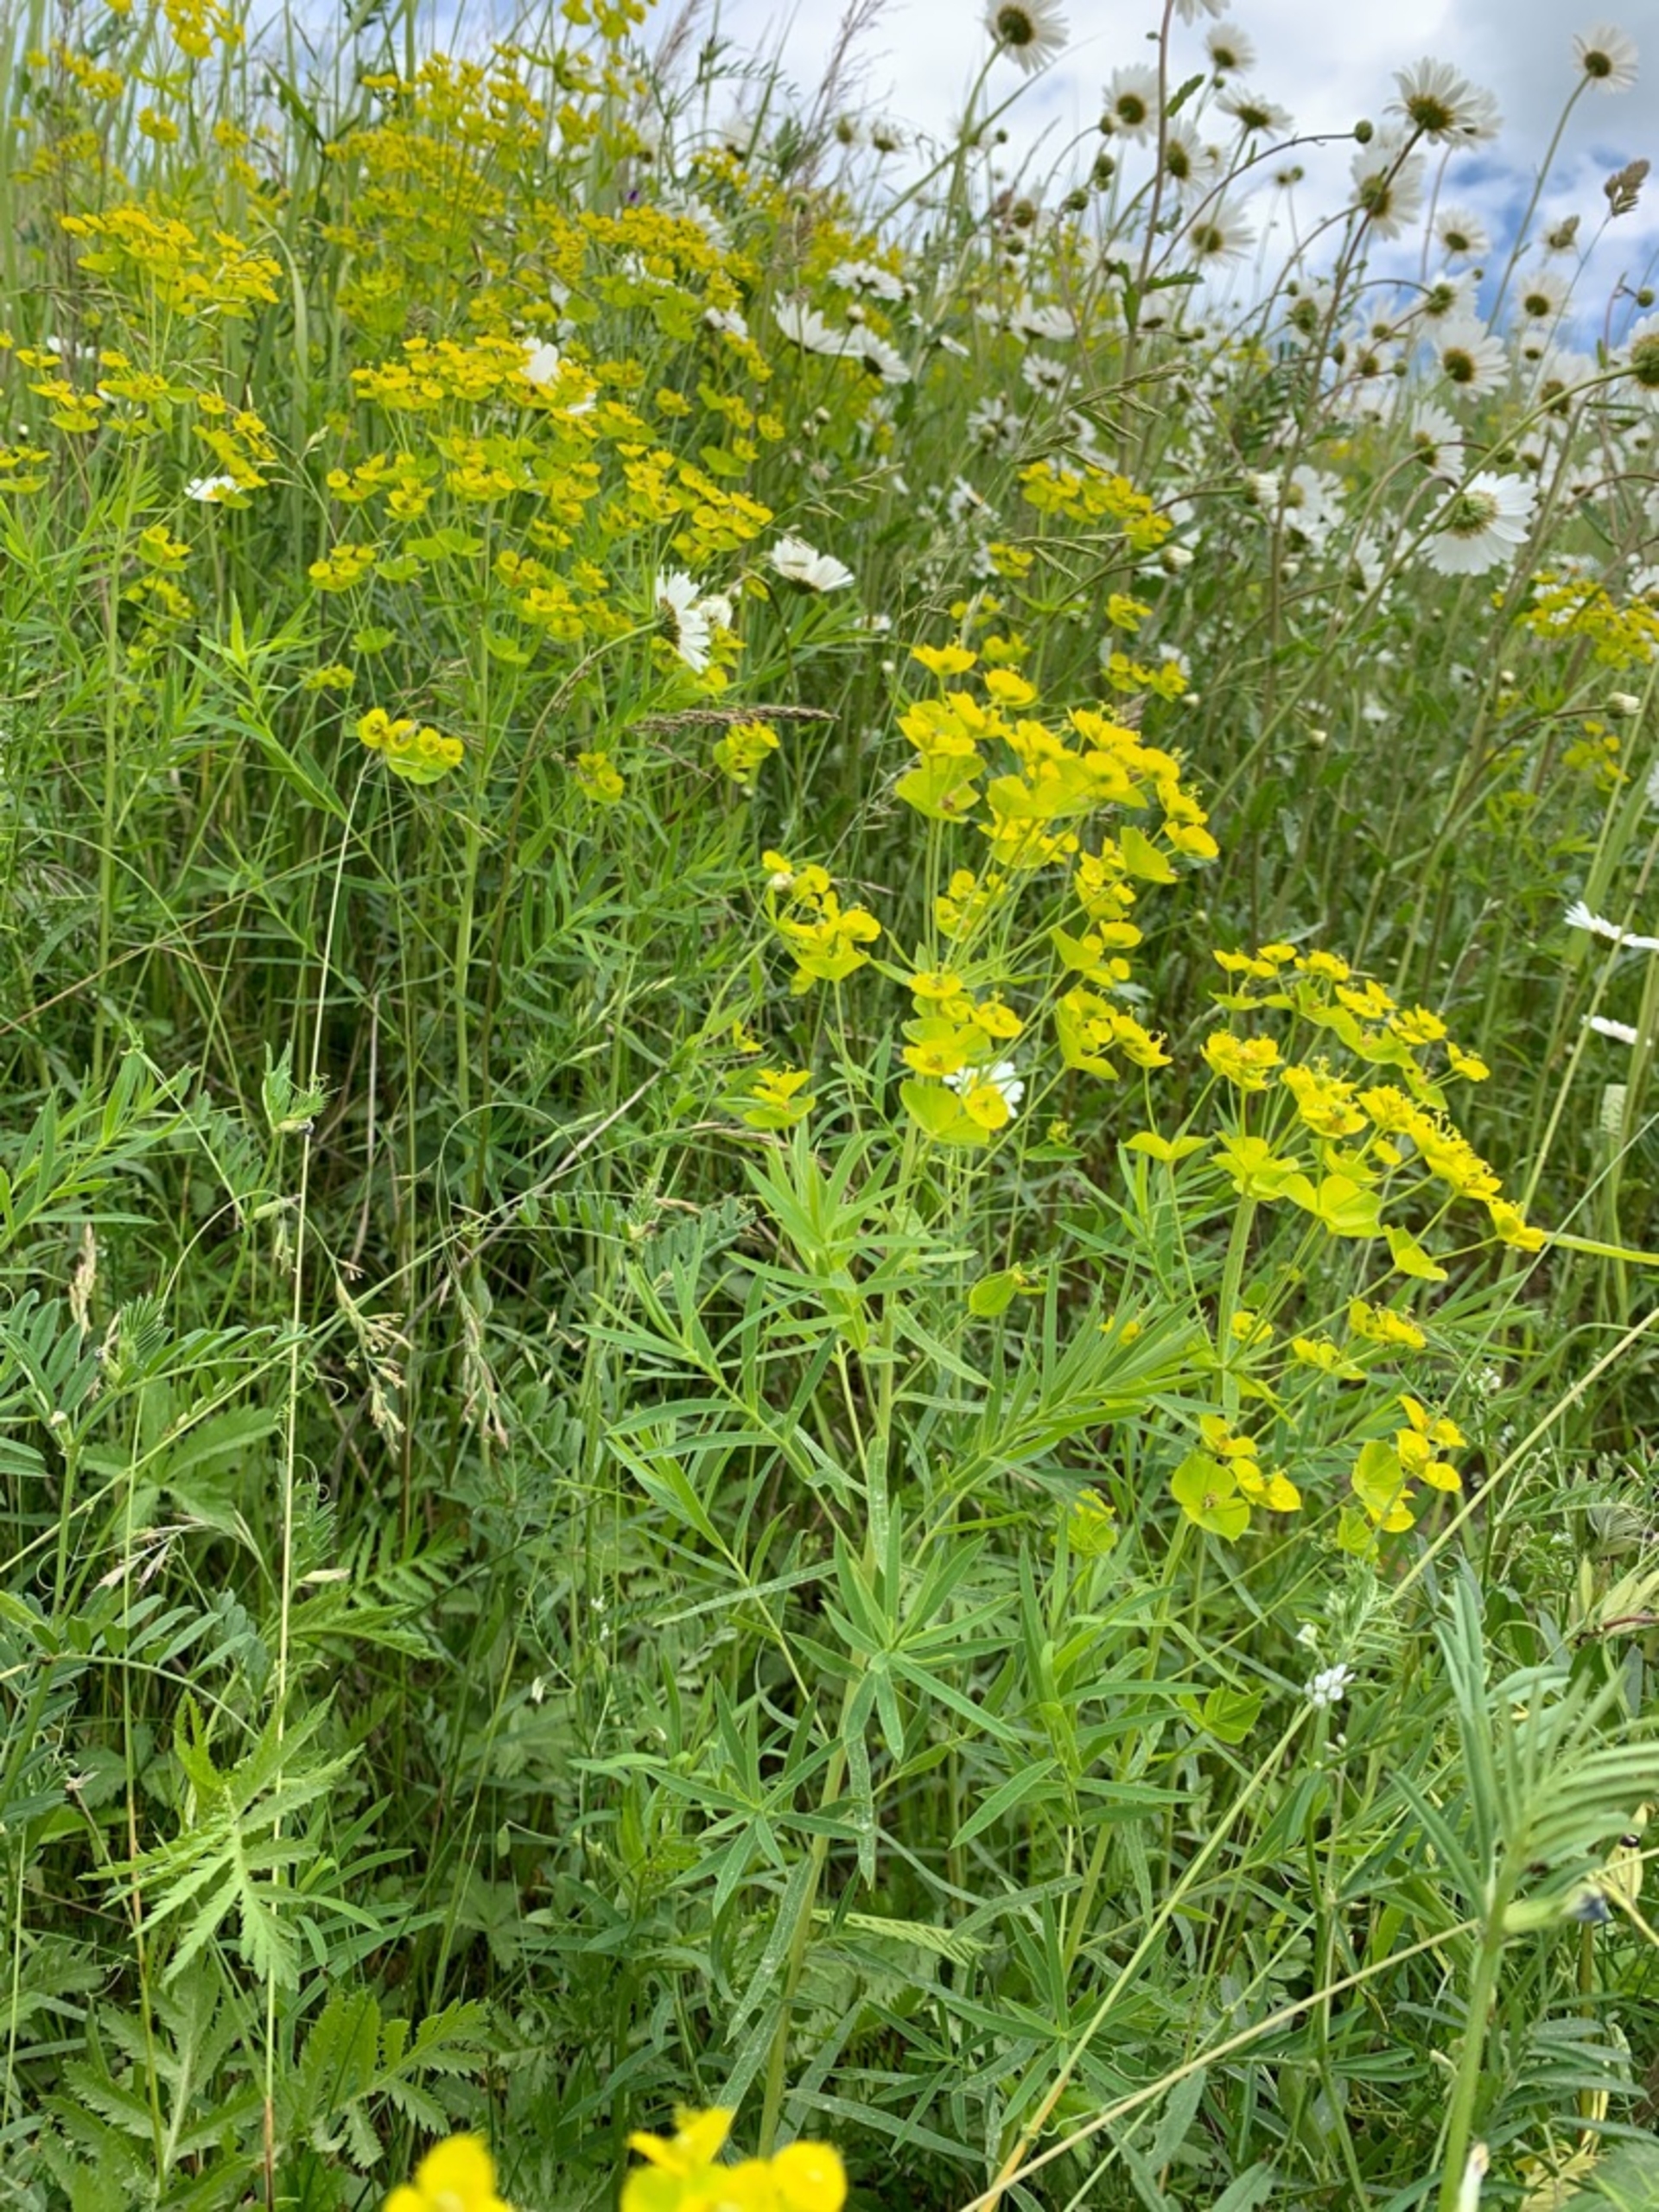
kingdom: Plantae
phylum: Tracheophyta
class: Magnoliopsida
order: Malpighiales
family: Euphorbiaceae
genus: Euphorbia
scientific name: Euphorbia tommasiniana
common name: Ris-vortemælk
